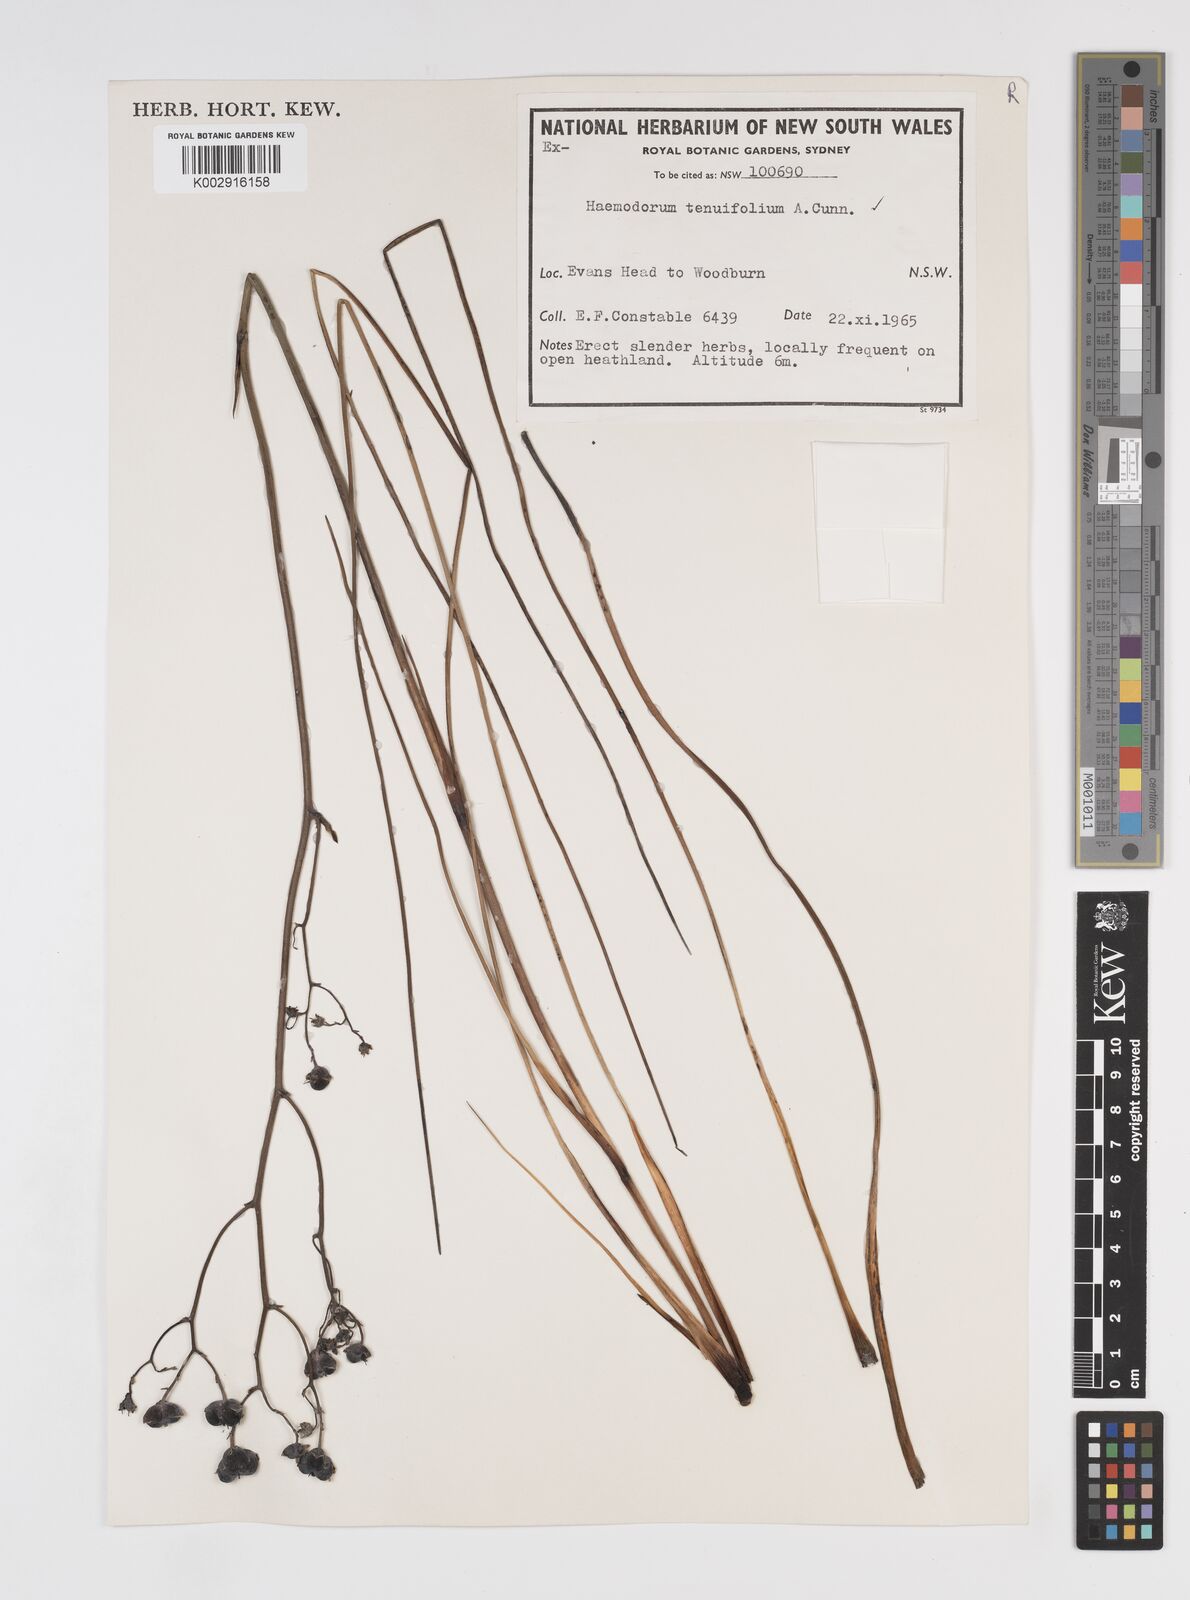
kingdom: Plantae
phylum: Tracheophyta
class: Liliopsida
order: Commelinales
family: Haemodoraceae
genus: Haemodorum
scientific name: Haemodorum tenuifolium
